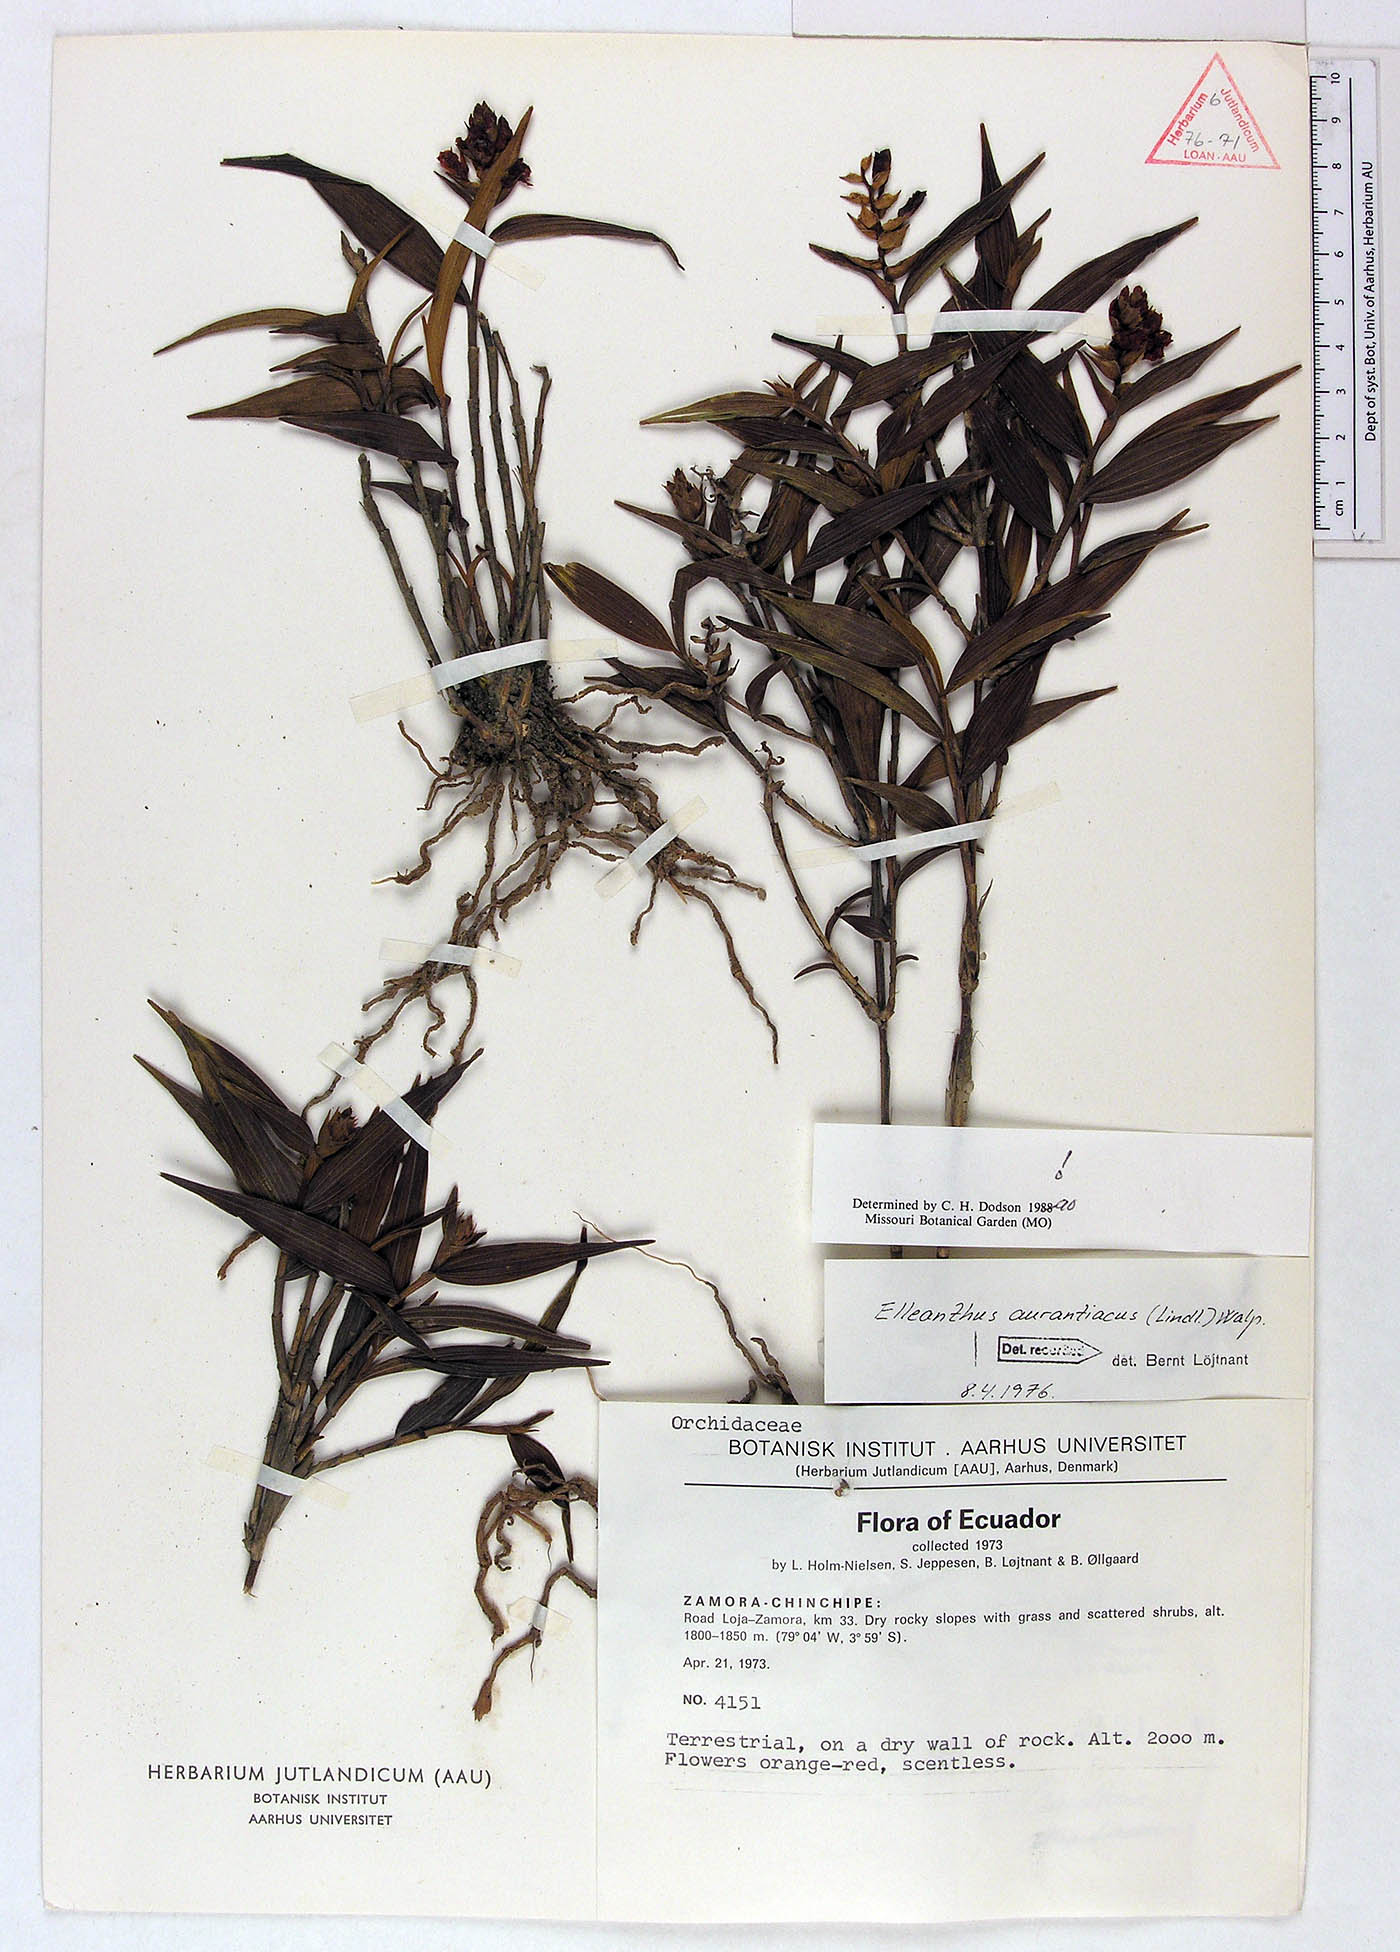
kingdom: Plantae
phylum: Tracheophyta
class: Liliopsida
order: Asparagales
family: Orchidaceae
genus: Elleanthus
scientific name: Elleanthus aurantiacus
